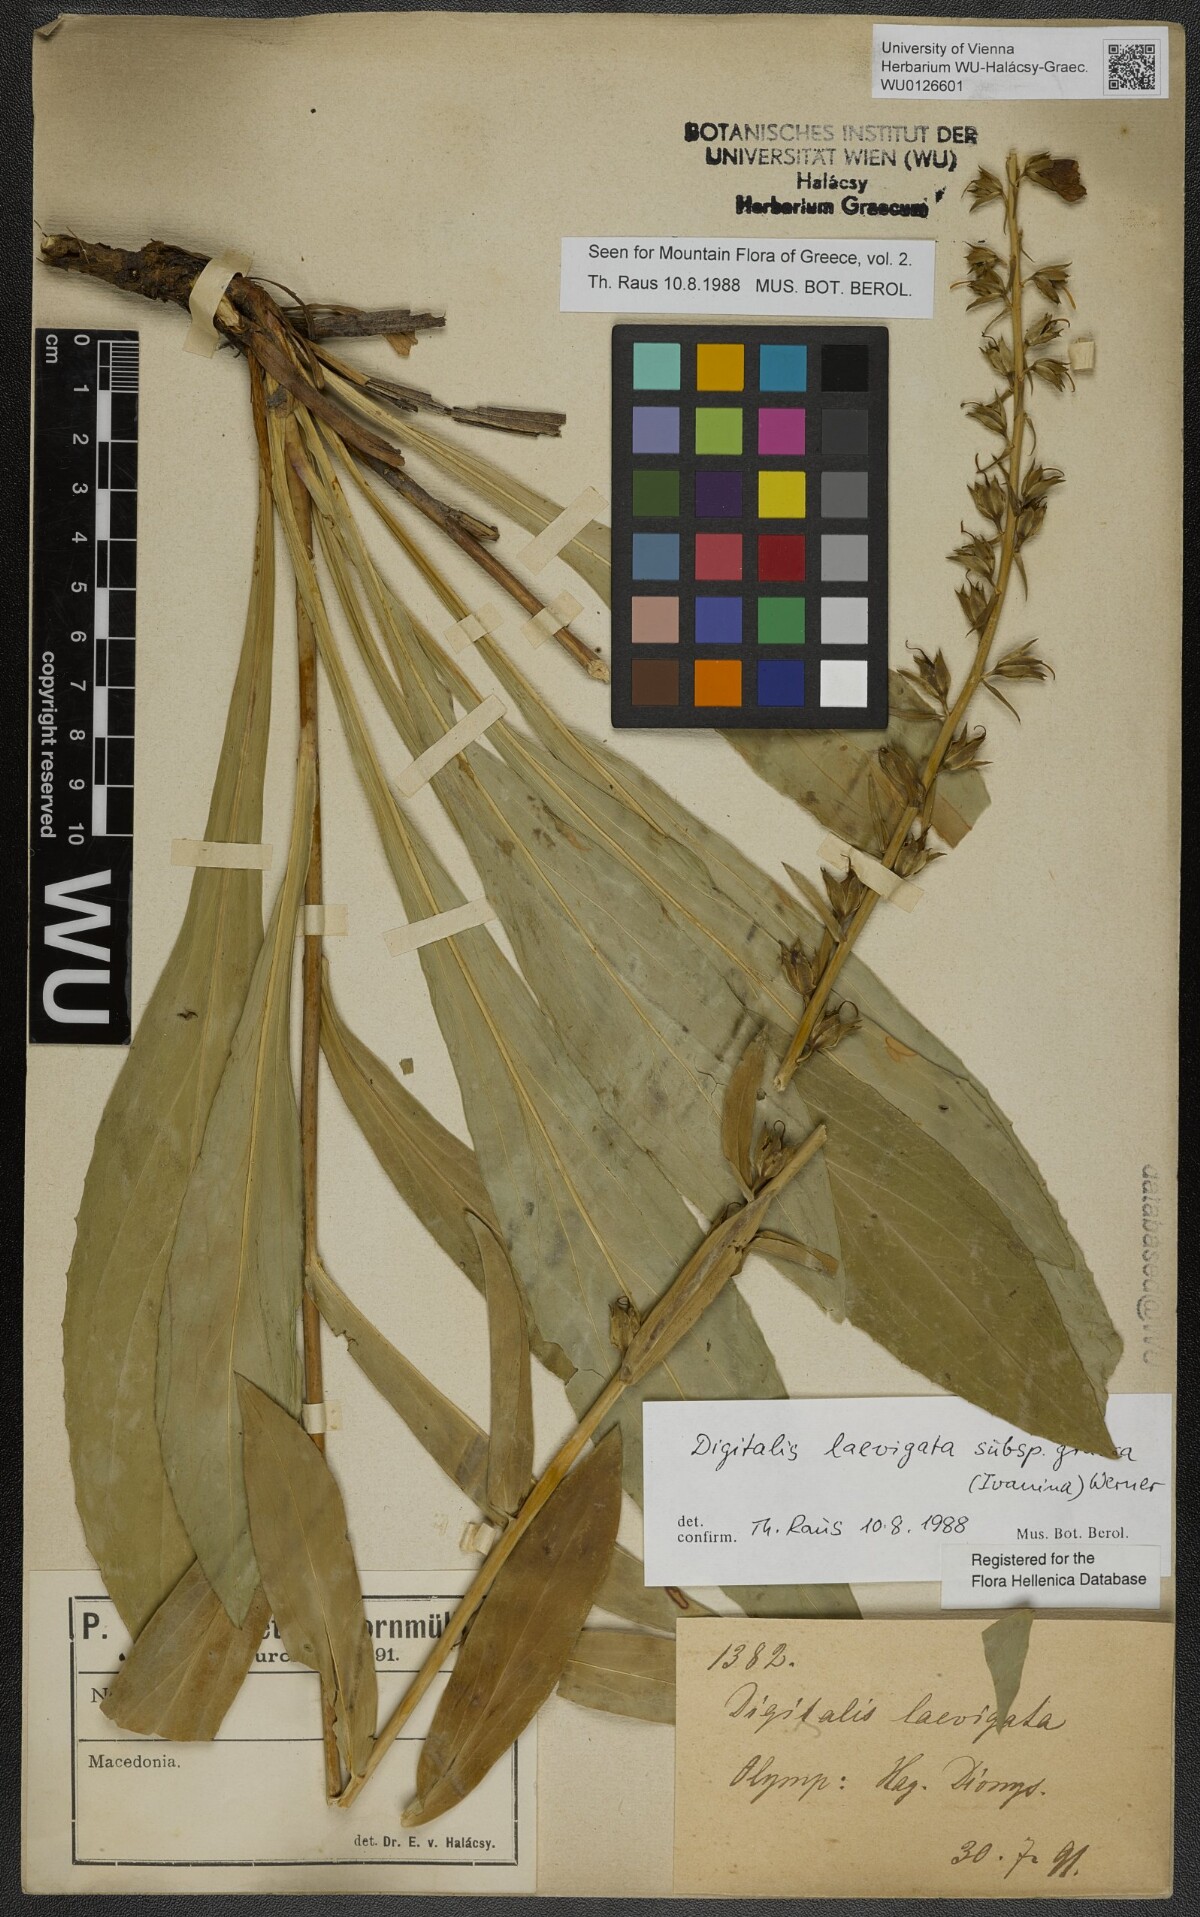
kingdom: Plantae
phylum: Tracheophyta
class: Magnoliopsida
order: Lamiales
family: Plantaginaceae
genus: Digitalis
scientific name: Digitalis laevigata
